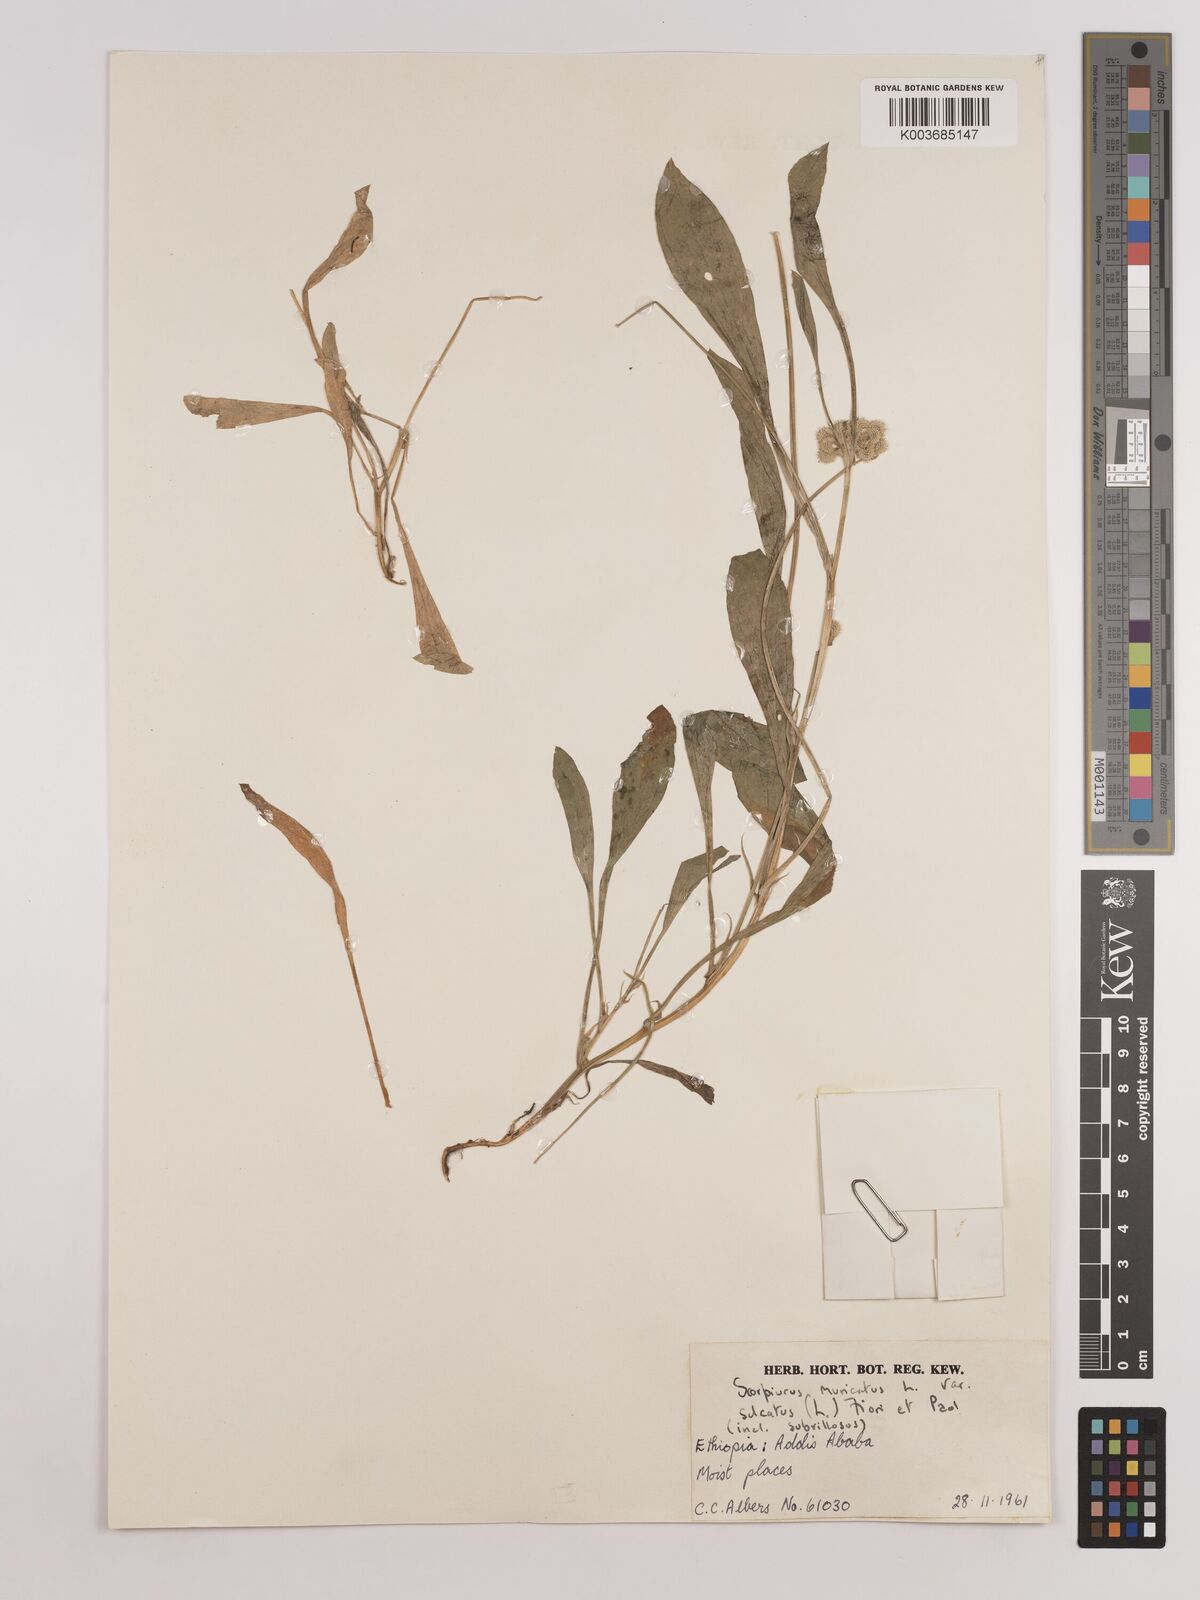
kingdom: Plantae
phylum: Tracheophyta
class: Magnoliopsida
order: Fabales
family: Fabaceae
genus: Scorpiurus
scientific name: Scorpiurus muricatus
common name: Caterpillar-plant
